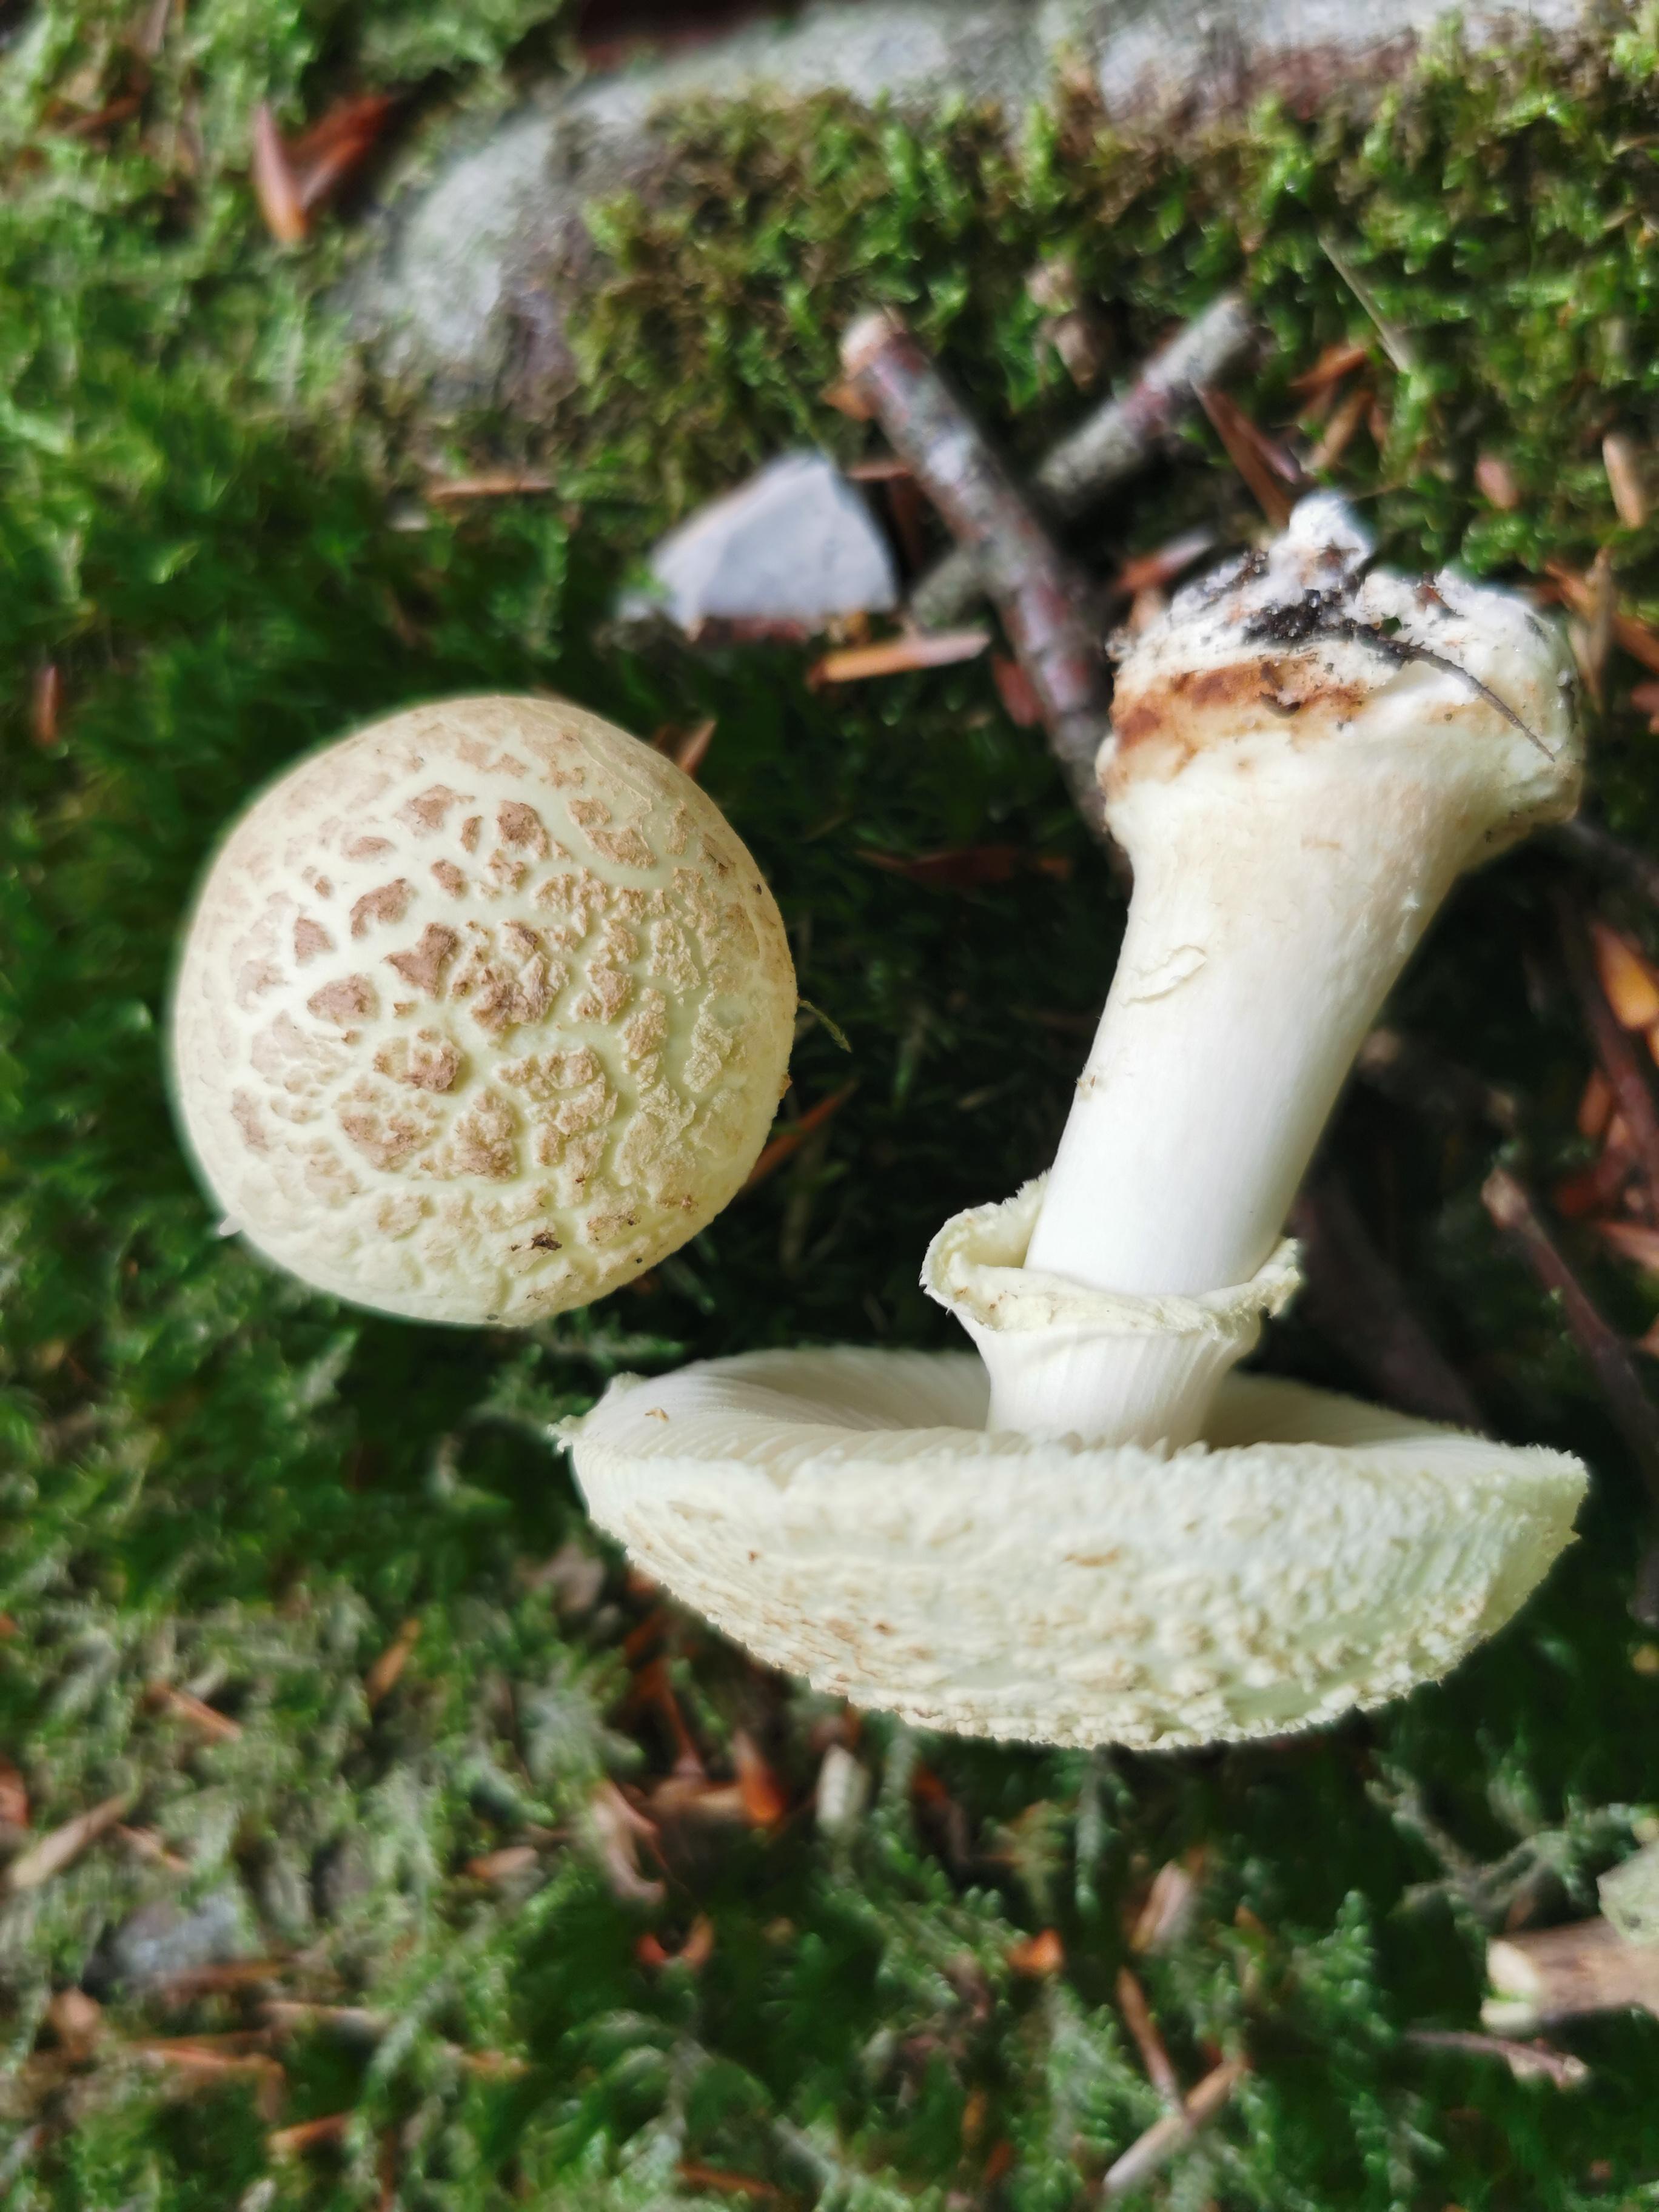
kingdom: Fungi
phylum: Basidiomycota
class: Agaricomycetes
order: Agaricales
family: Amanitaceae
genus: Amanita
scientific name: Amanita citrina
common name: kugleknoldet fluesvamp
